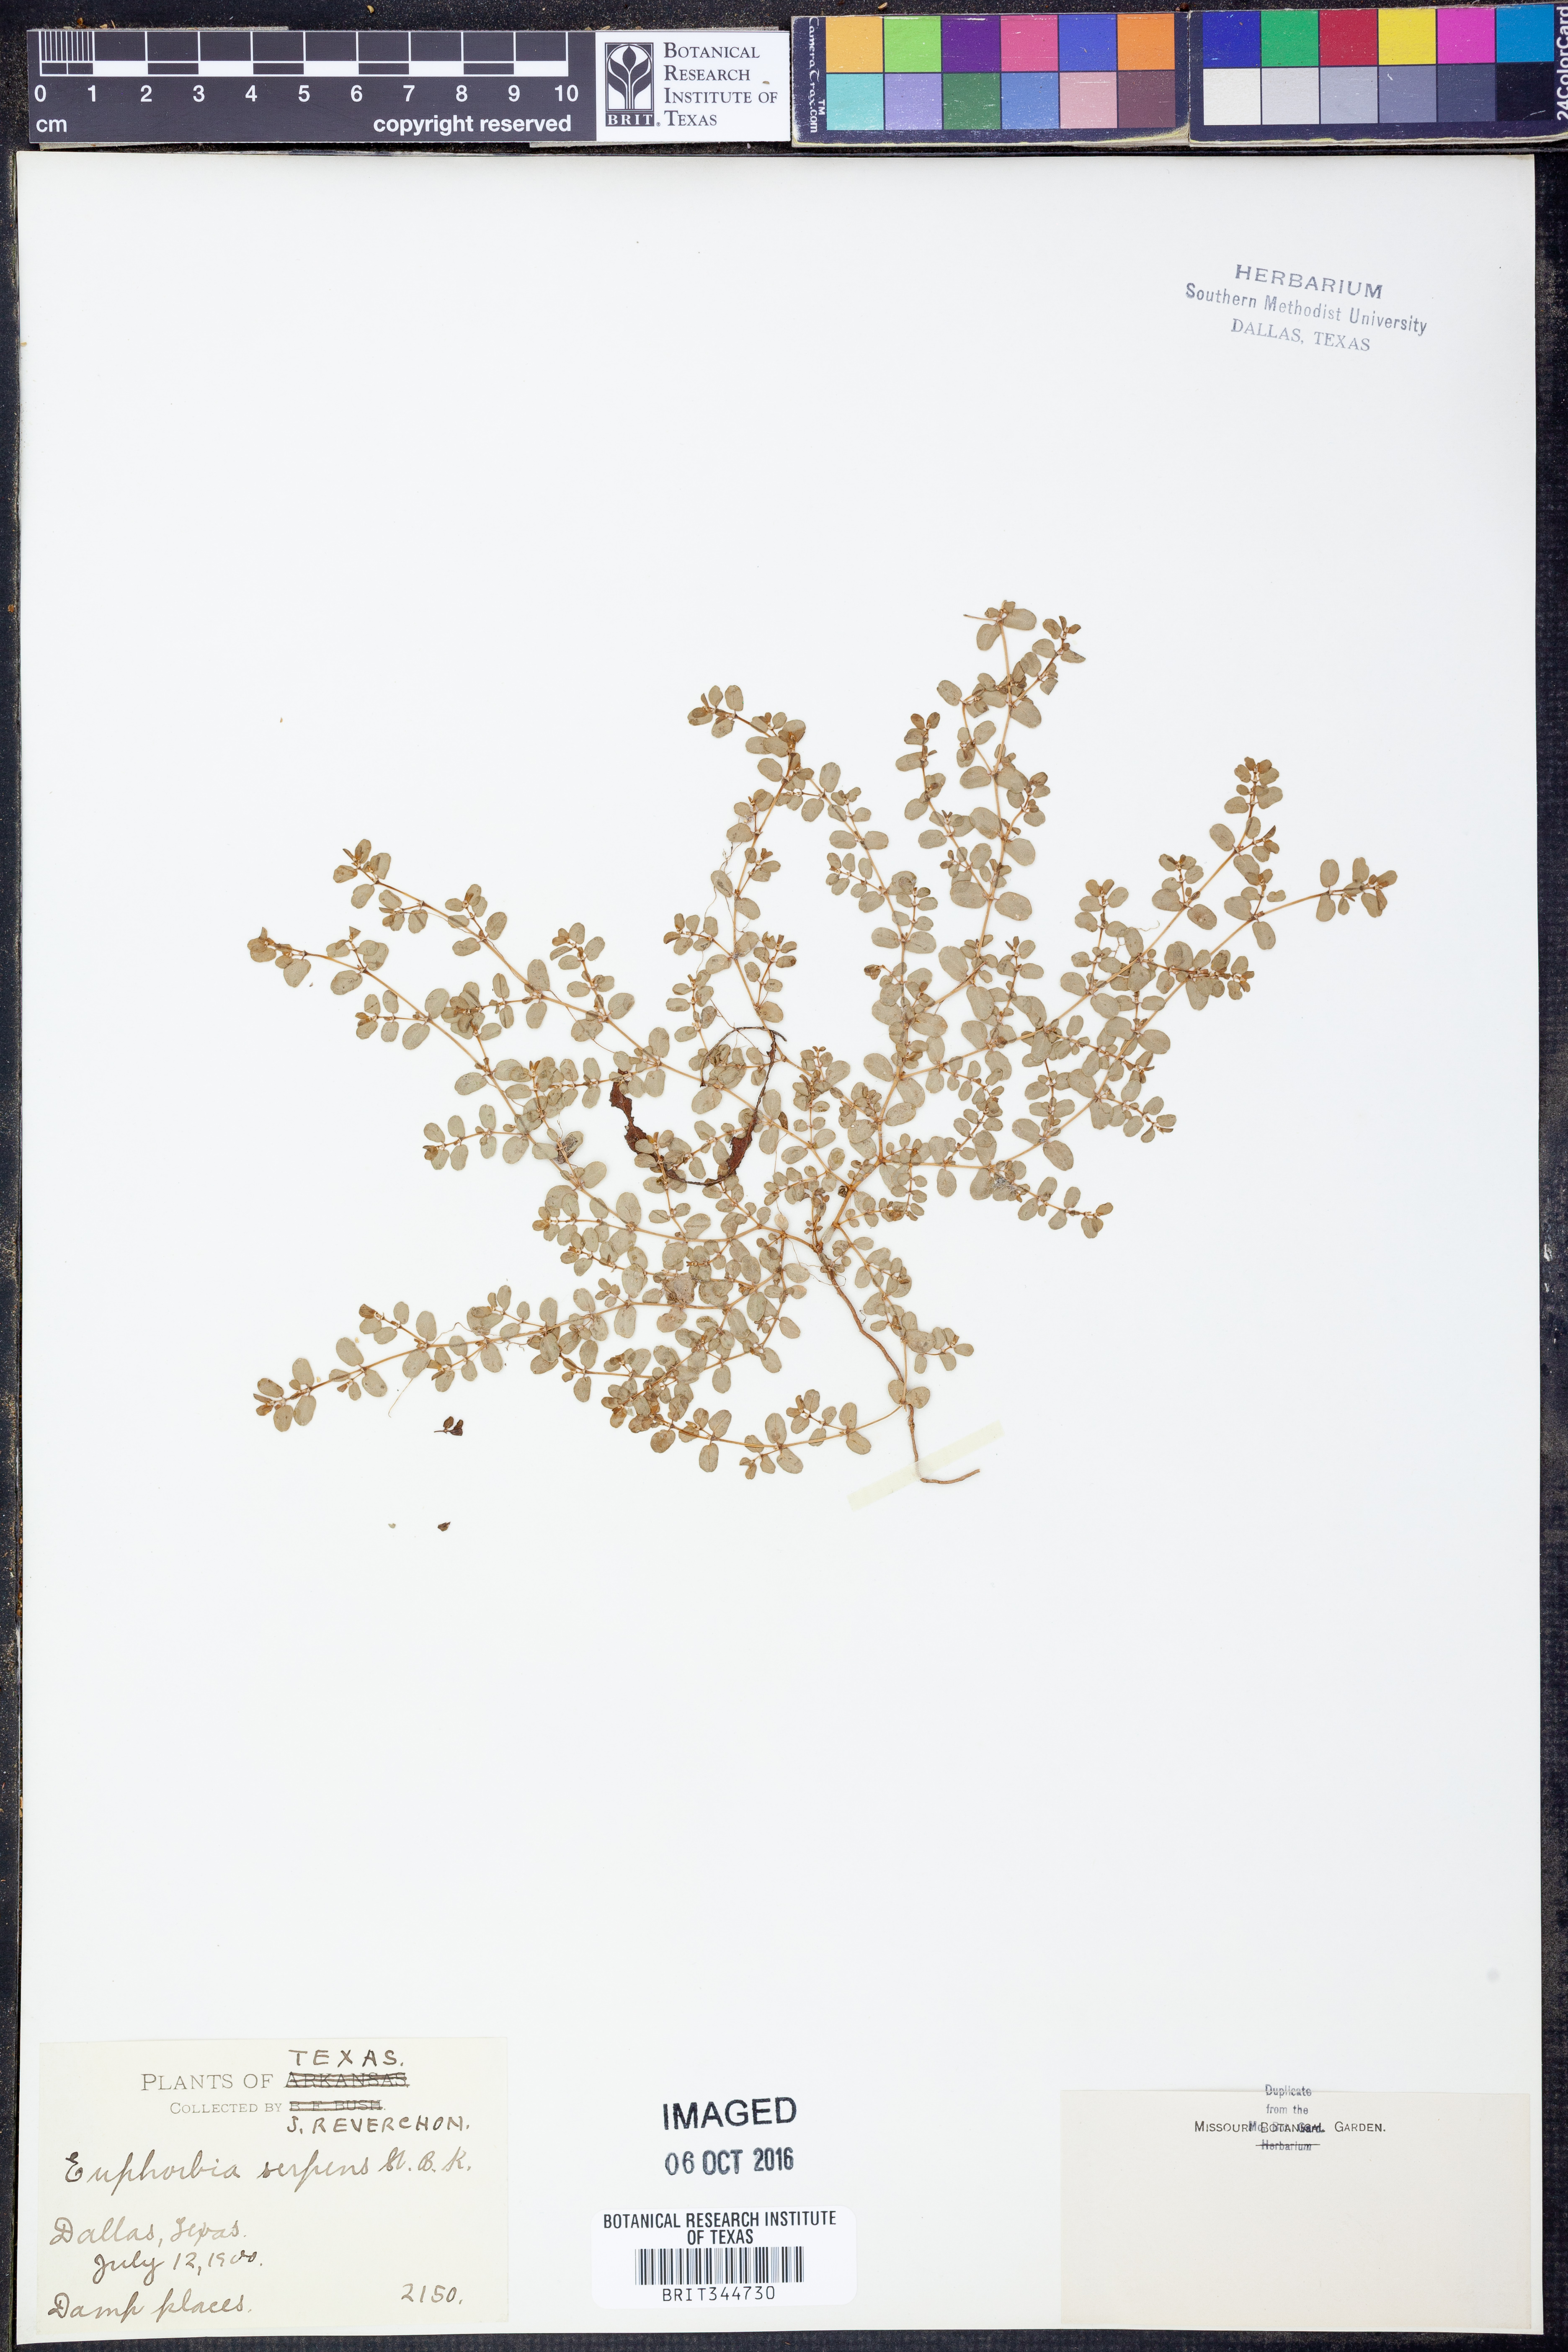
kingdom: Plantae
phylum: Tracheophyta
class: Magnoliopsida
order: Malpighiales
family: Euphorbiaceae
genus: Euphorbia
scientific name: Euphorbia serpens
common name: Matted sandmat
